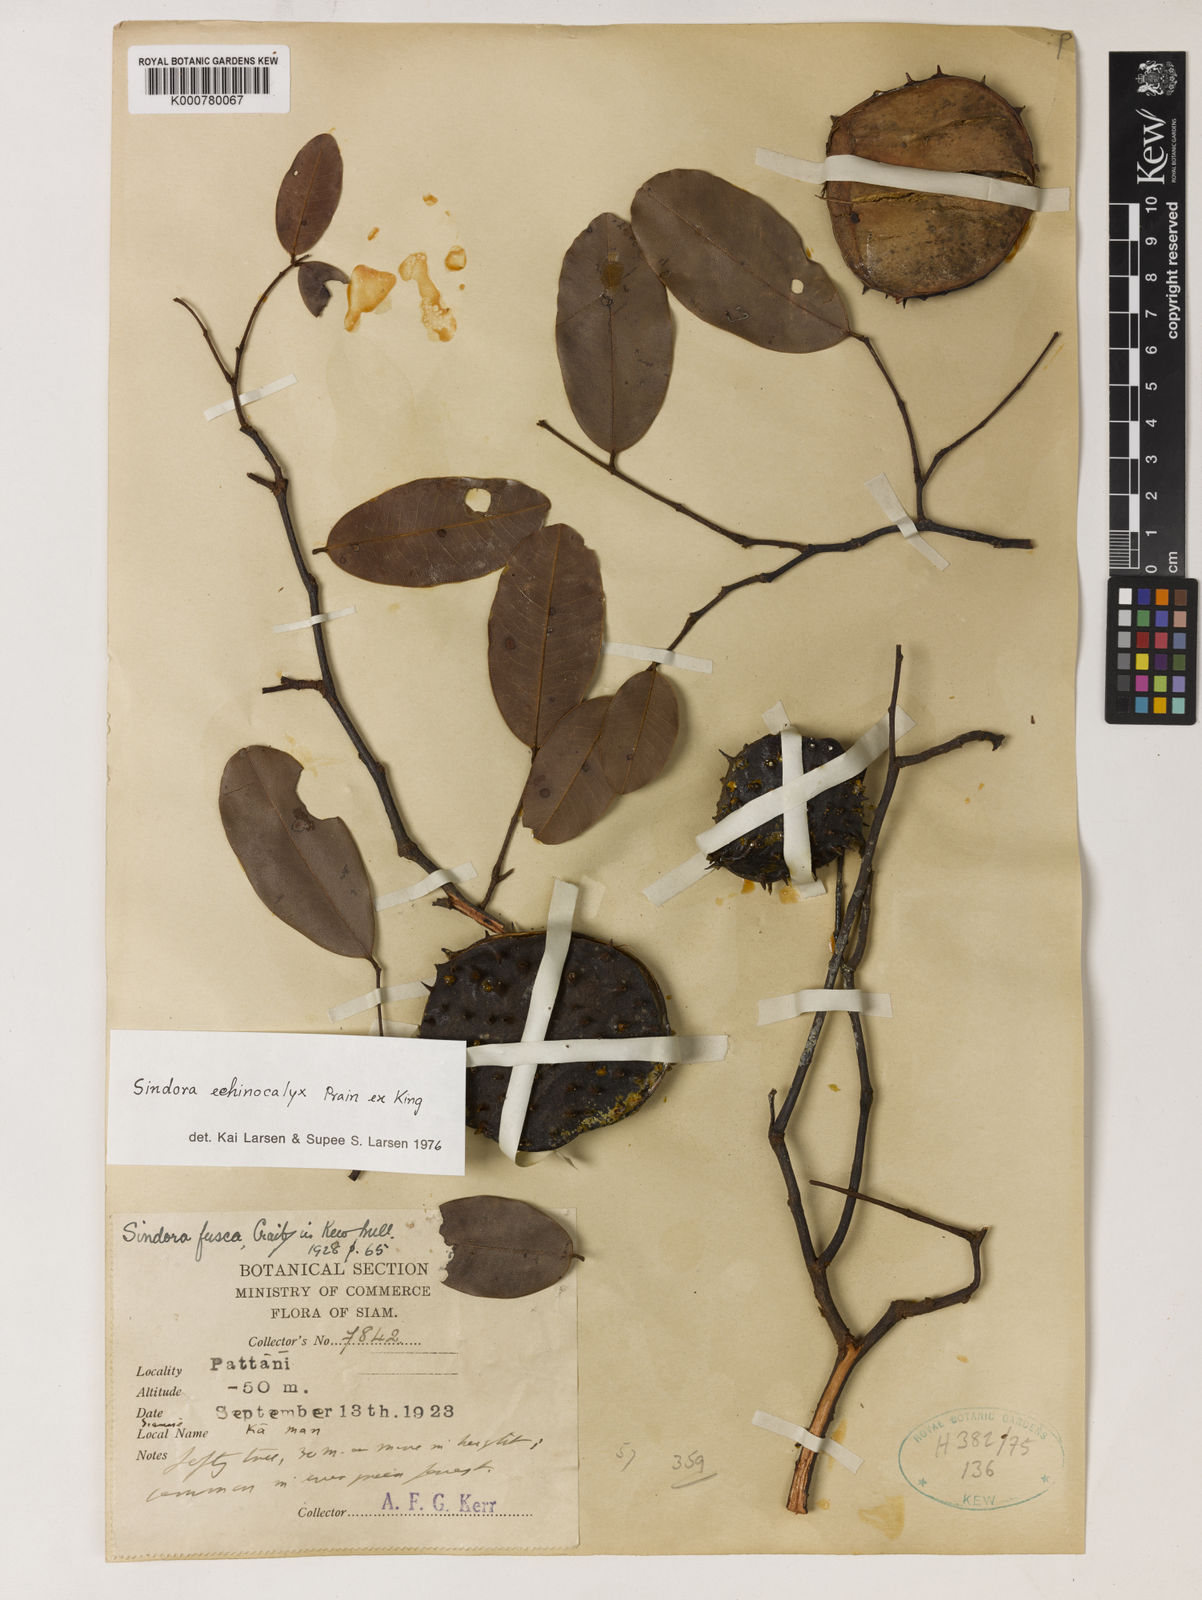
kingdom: Plantae
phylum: Tracheophyta
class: Magnoliopsida
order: Fabales
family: Fabaceae
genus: Sindora
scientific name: Sindora
